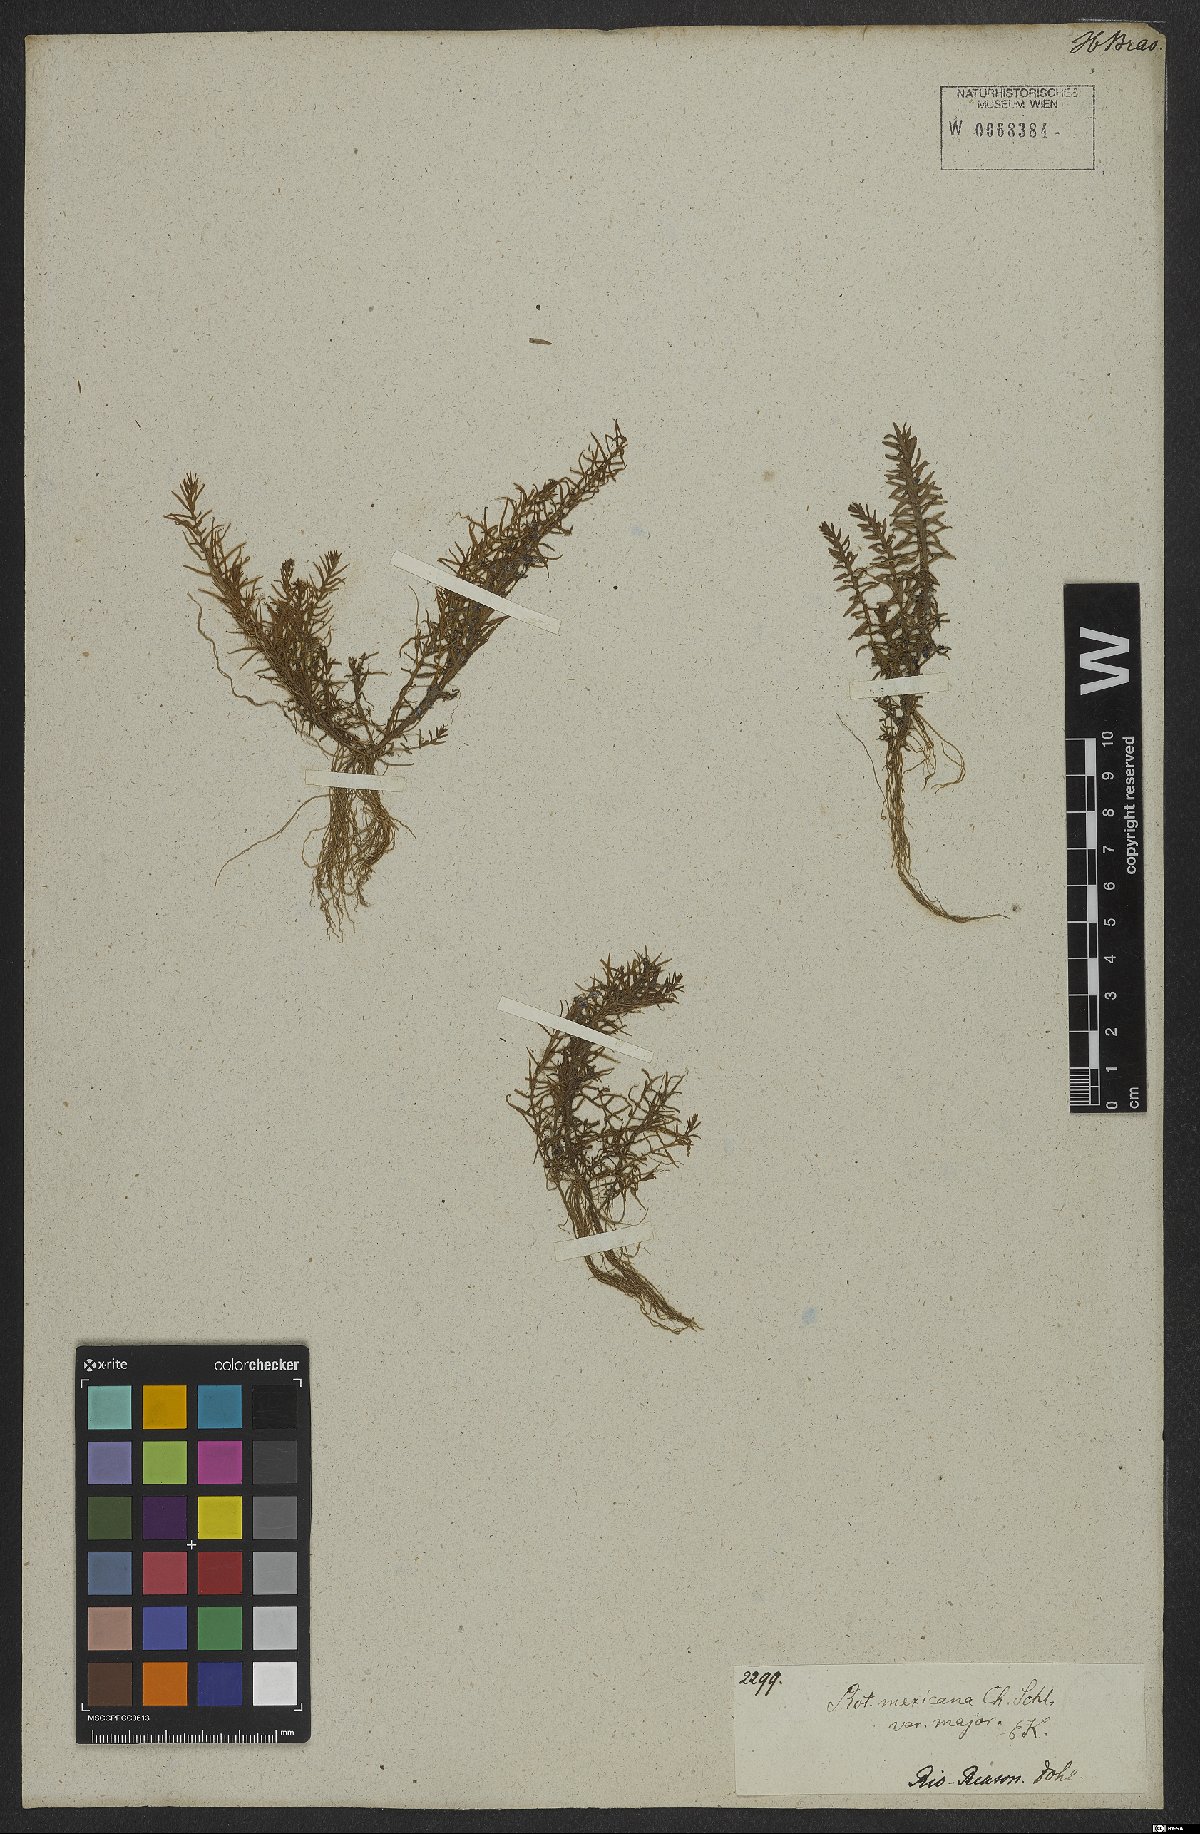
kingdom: Plantae
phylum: Tracheophyta
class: Magnoliopsida
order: Myrtales
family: Lythraceae
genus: Rotala
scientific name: Rotala mexicana
